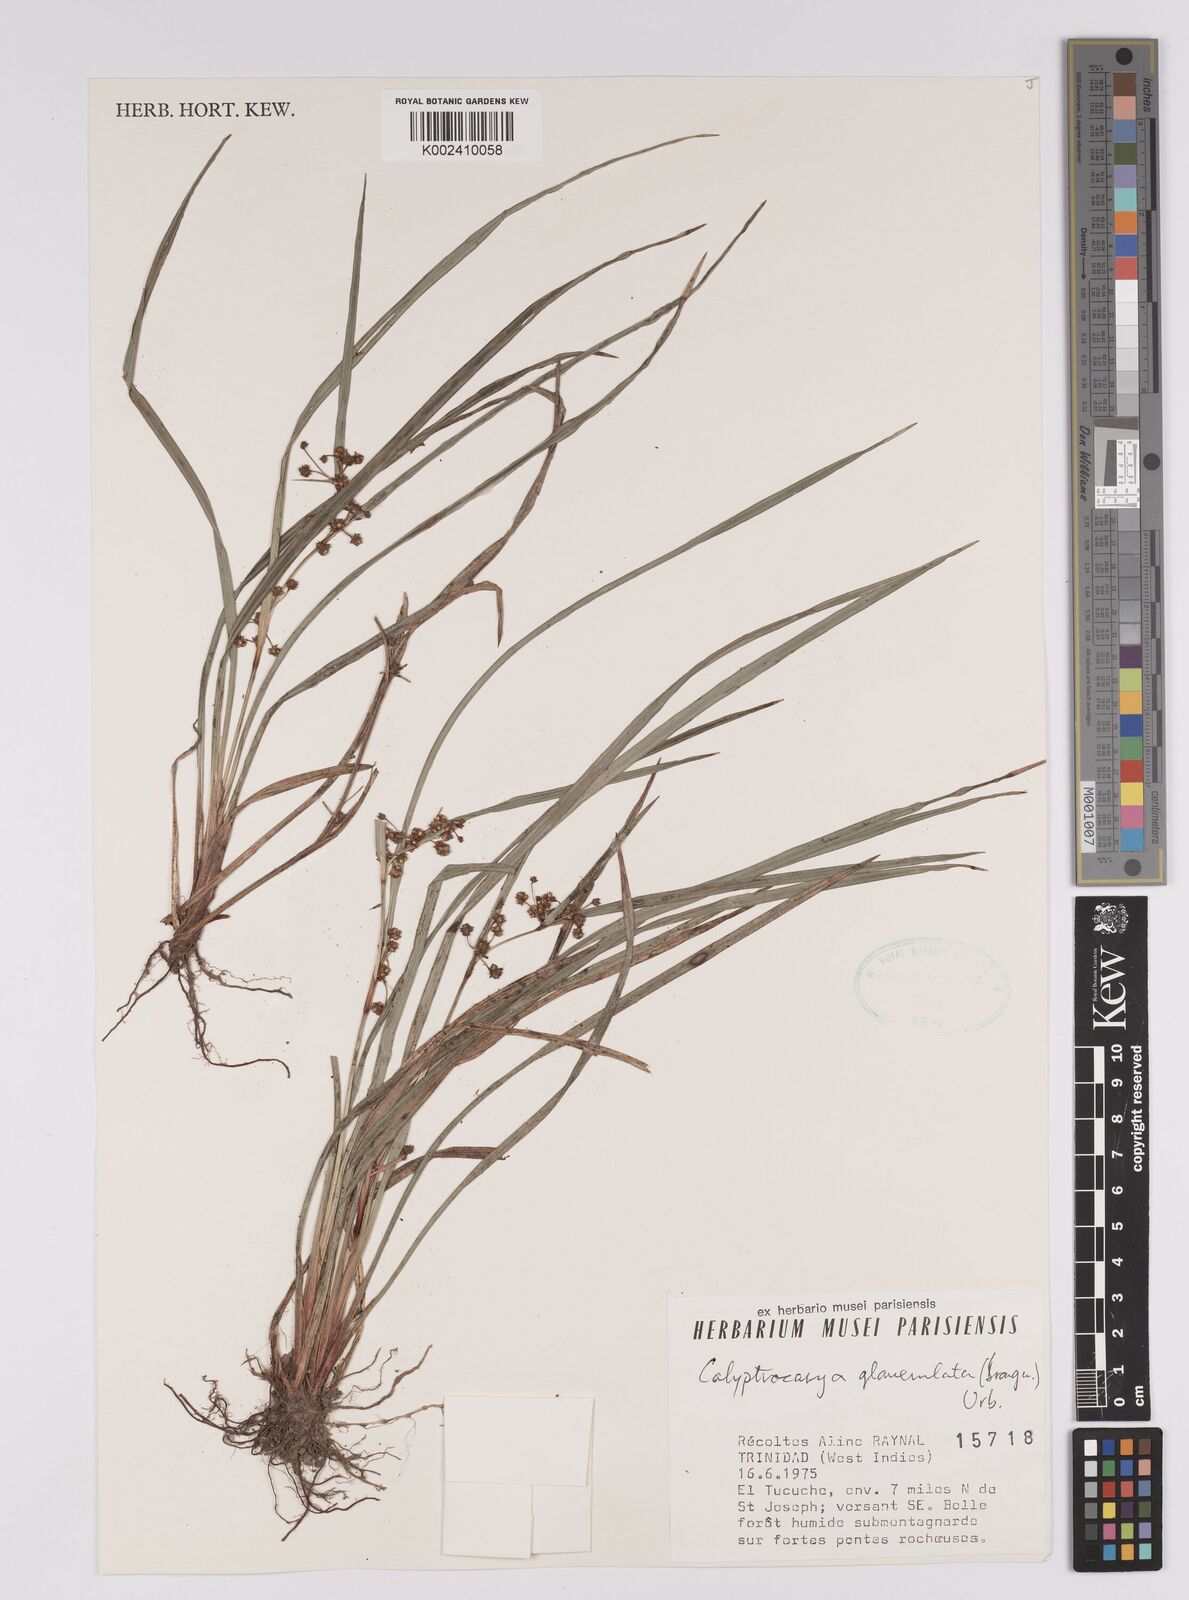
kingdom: Plantae
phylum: Tracheophyta
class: Liliopsida
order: Poales
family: Cyperaceae
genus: Calyptrocarya
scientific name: Calyptrocarya glomerulata
